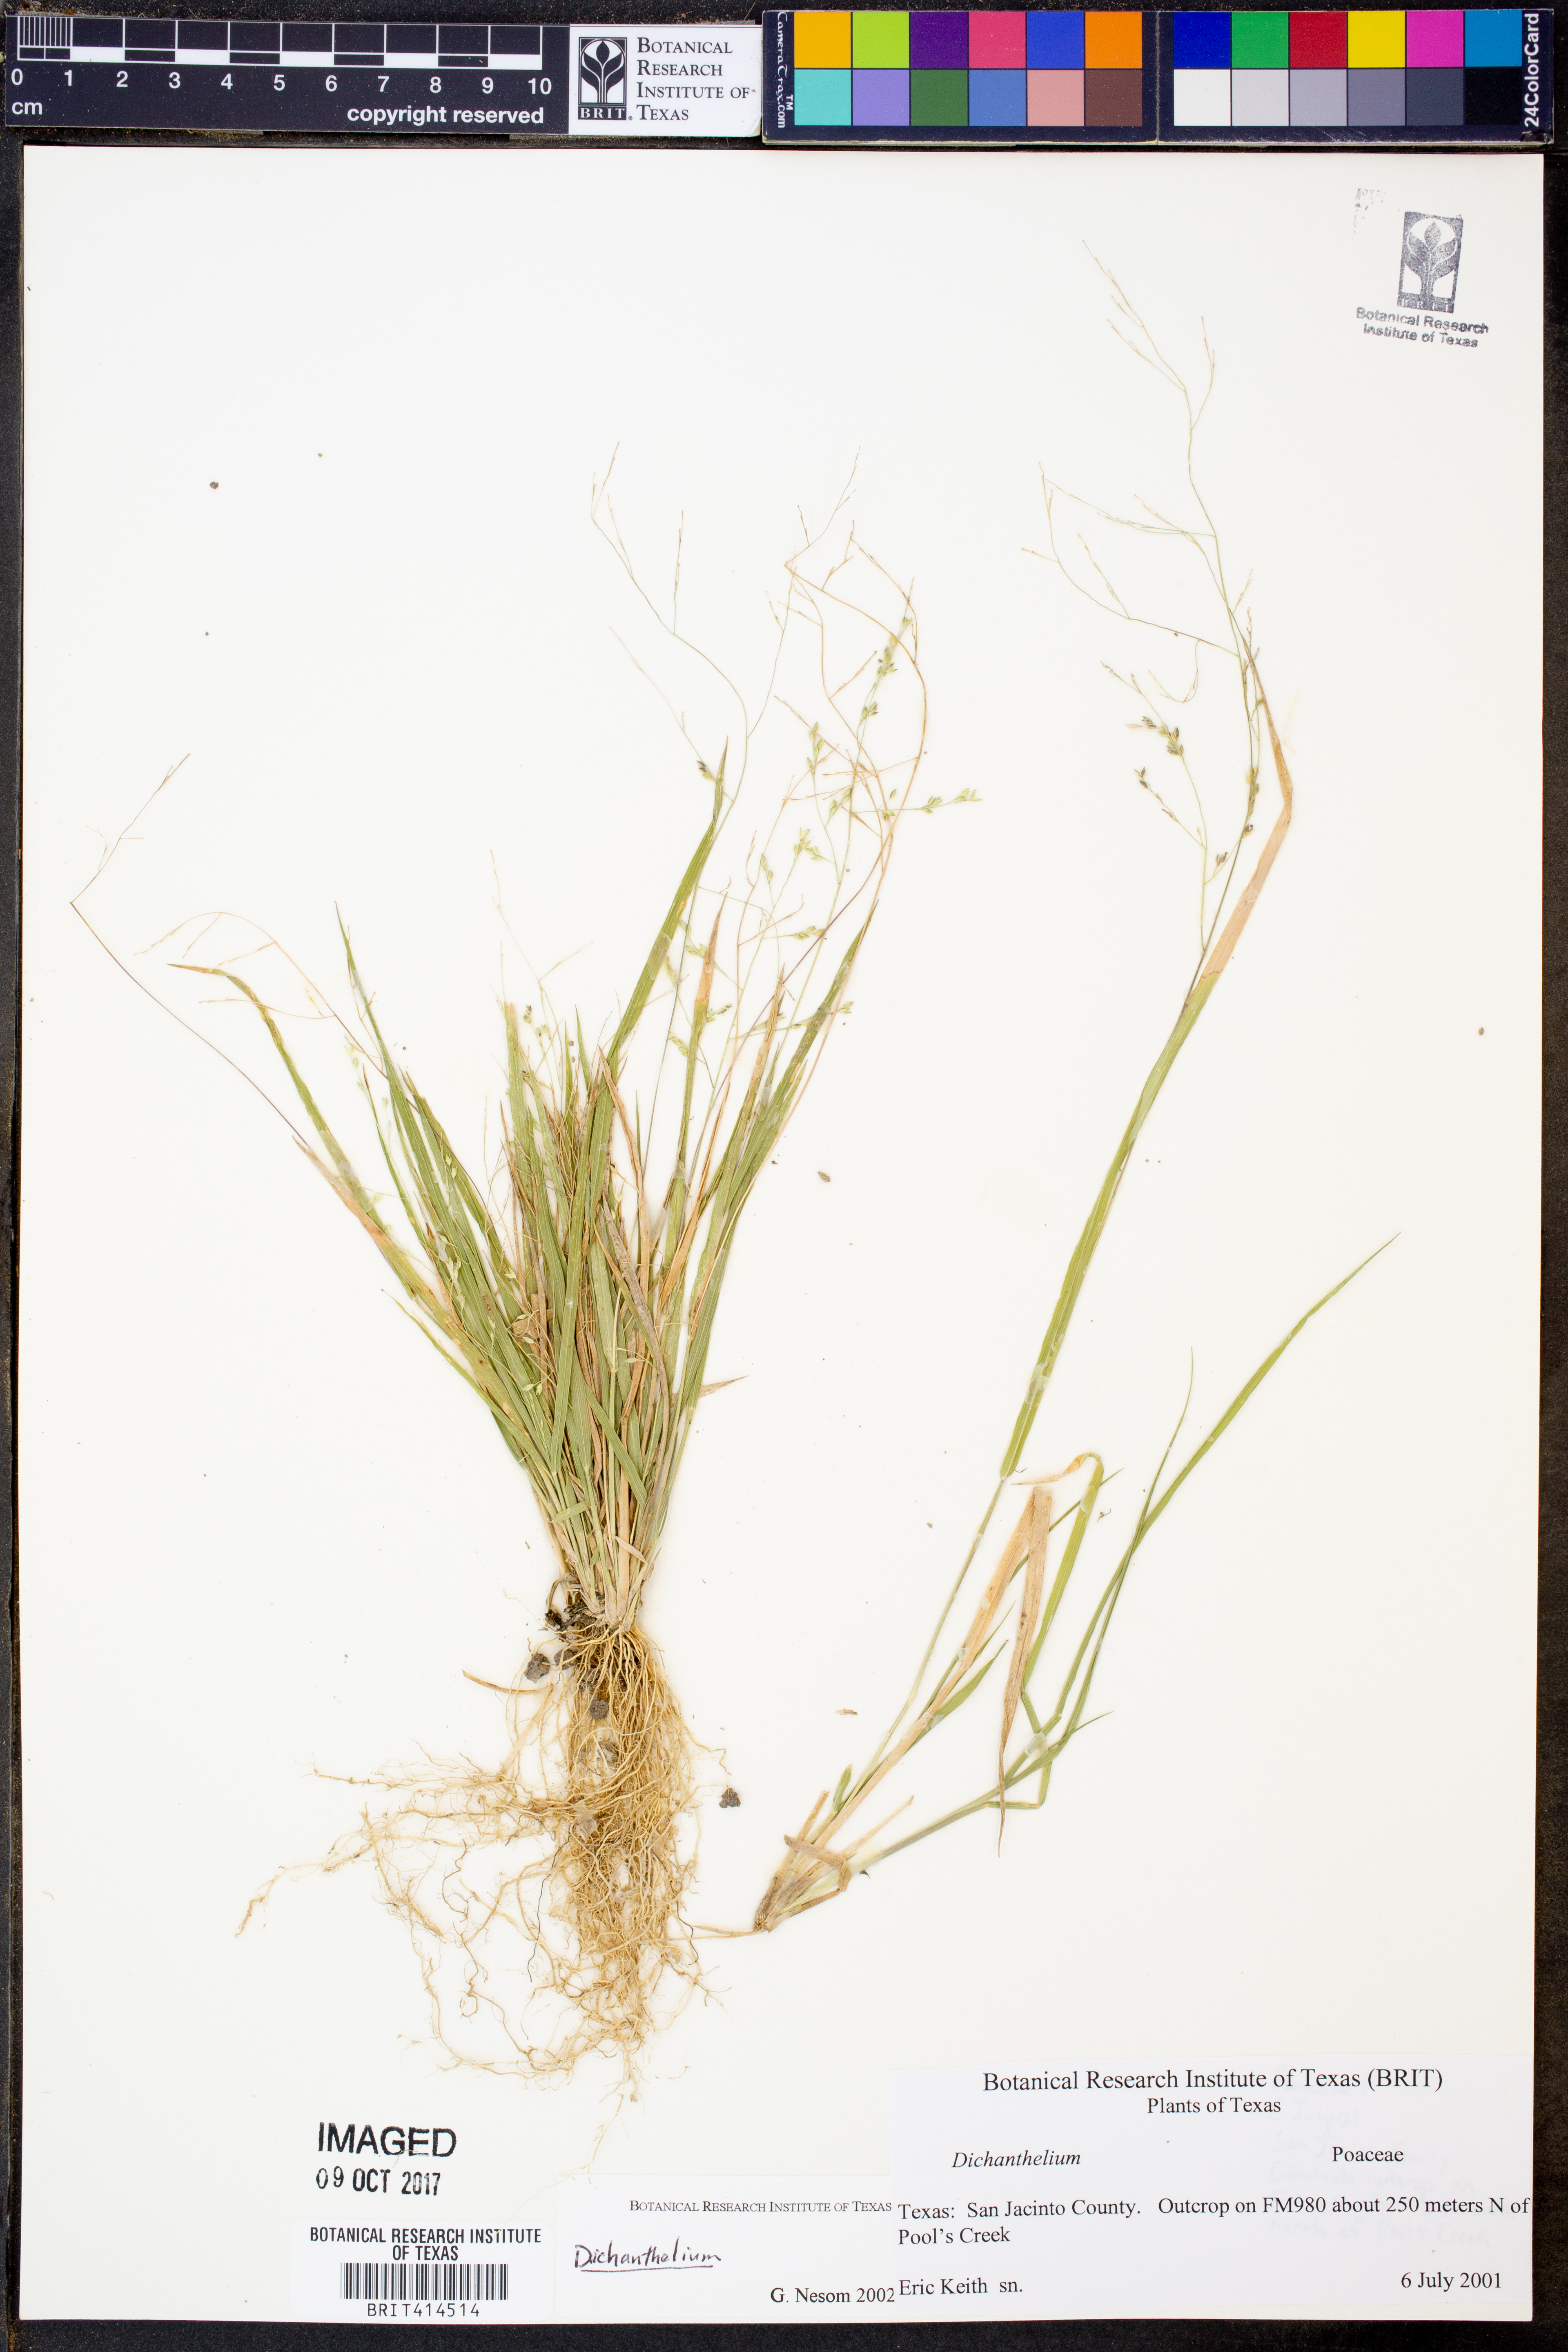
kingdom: Plantae
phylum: Tracheophyta
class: Liliopsida
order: Poales
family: Poaceae
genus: Dichanthelium
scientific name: Dichanthelium
